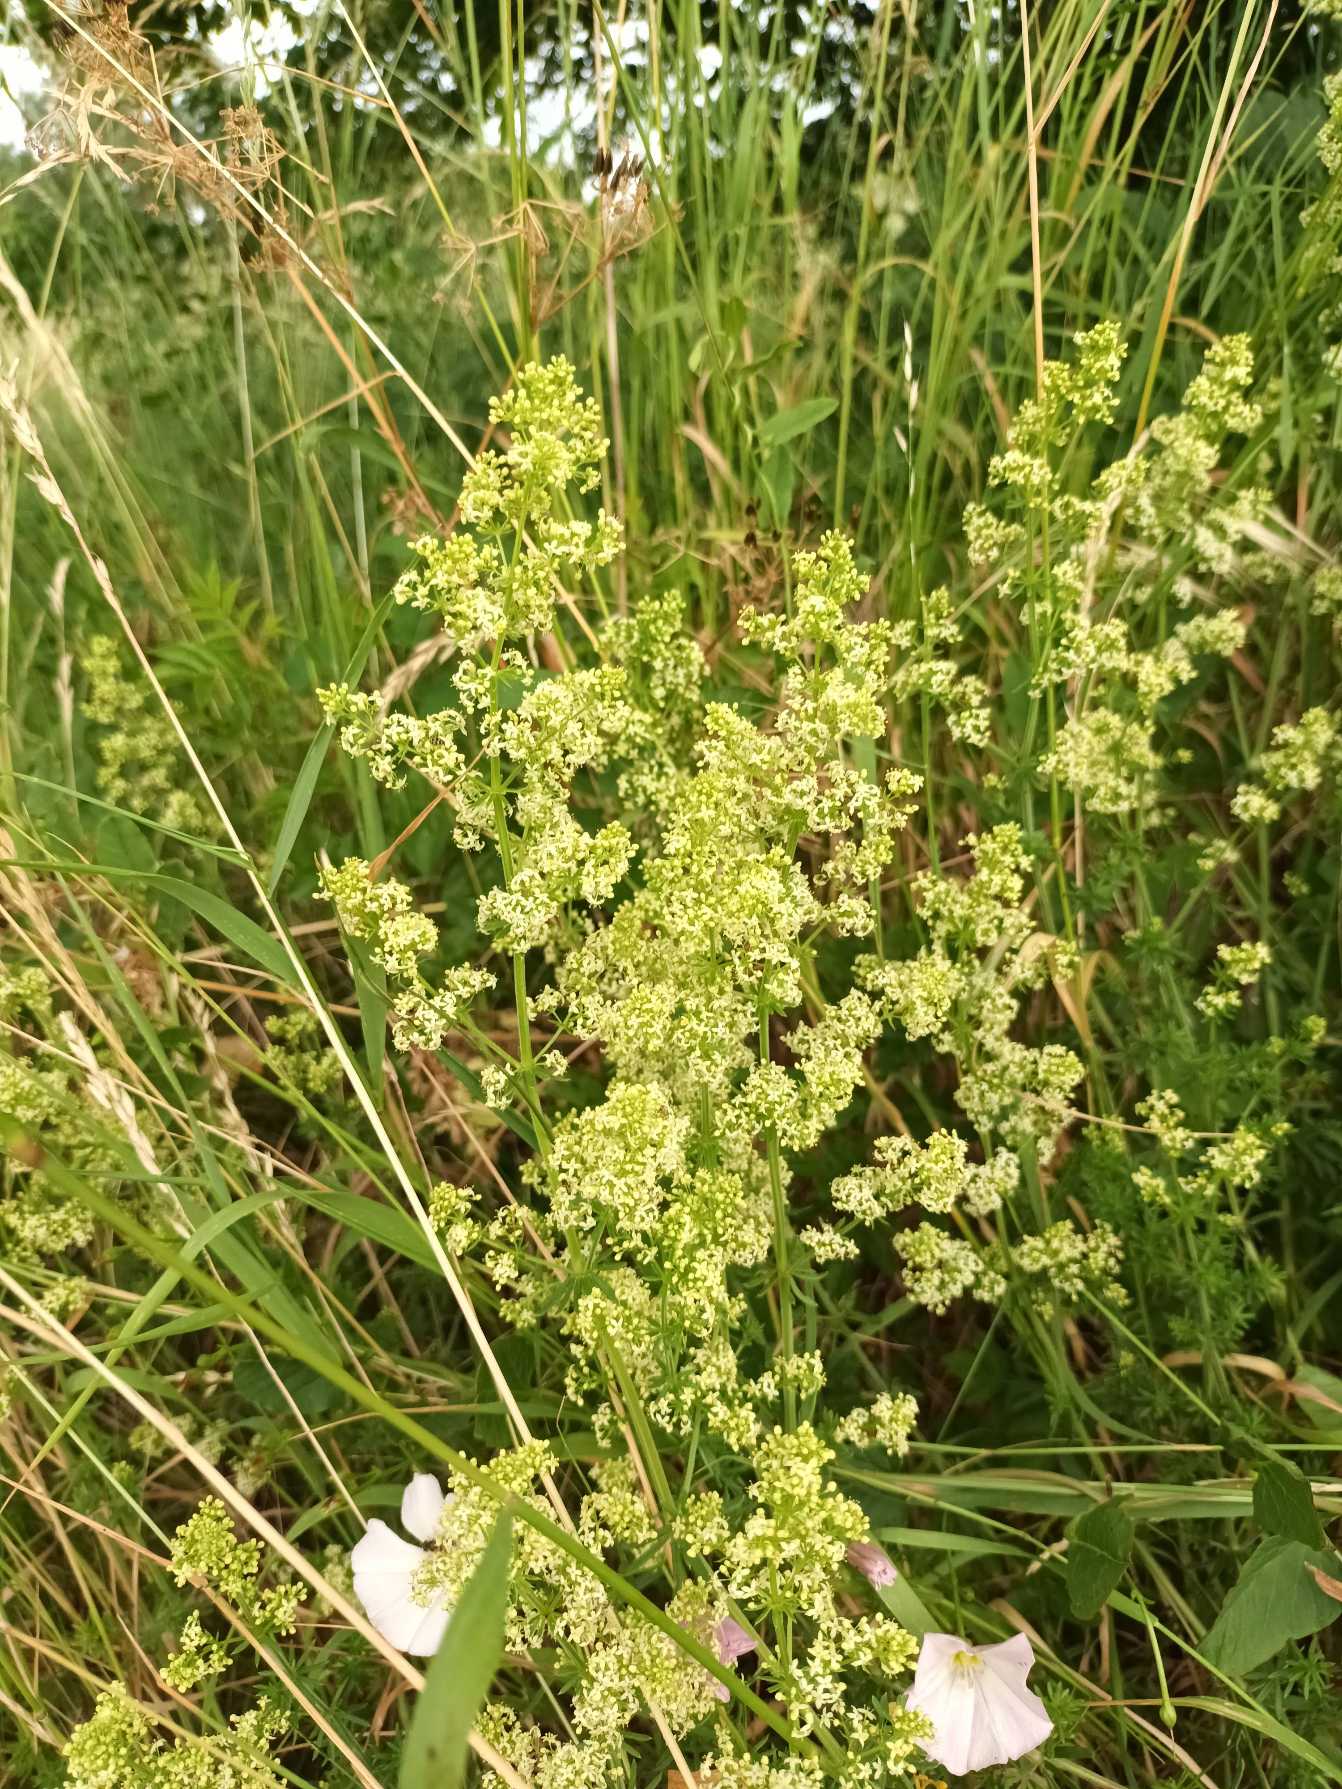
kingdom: Plantae
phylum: Tracheophyta
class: Magnoliopsida
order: Gentianales
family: Rubiaceae
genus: Galium
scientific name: Galium
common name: Hvidgul snerre
